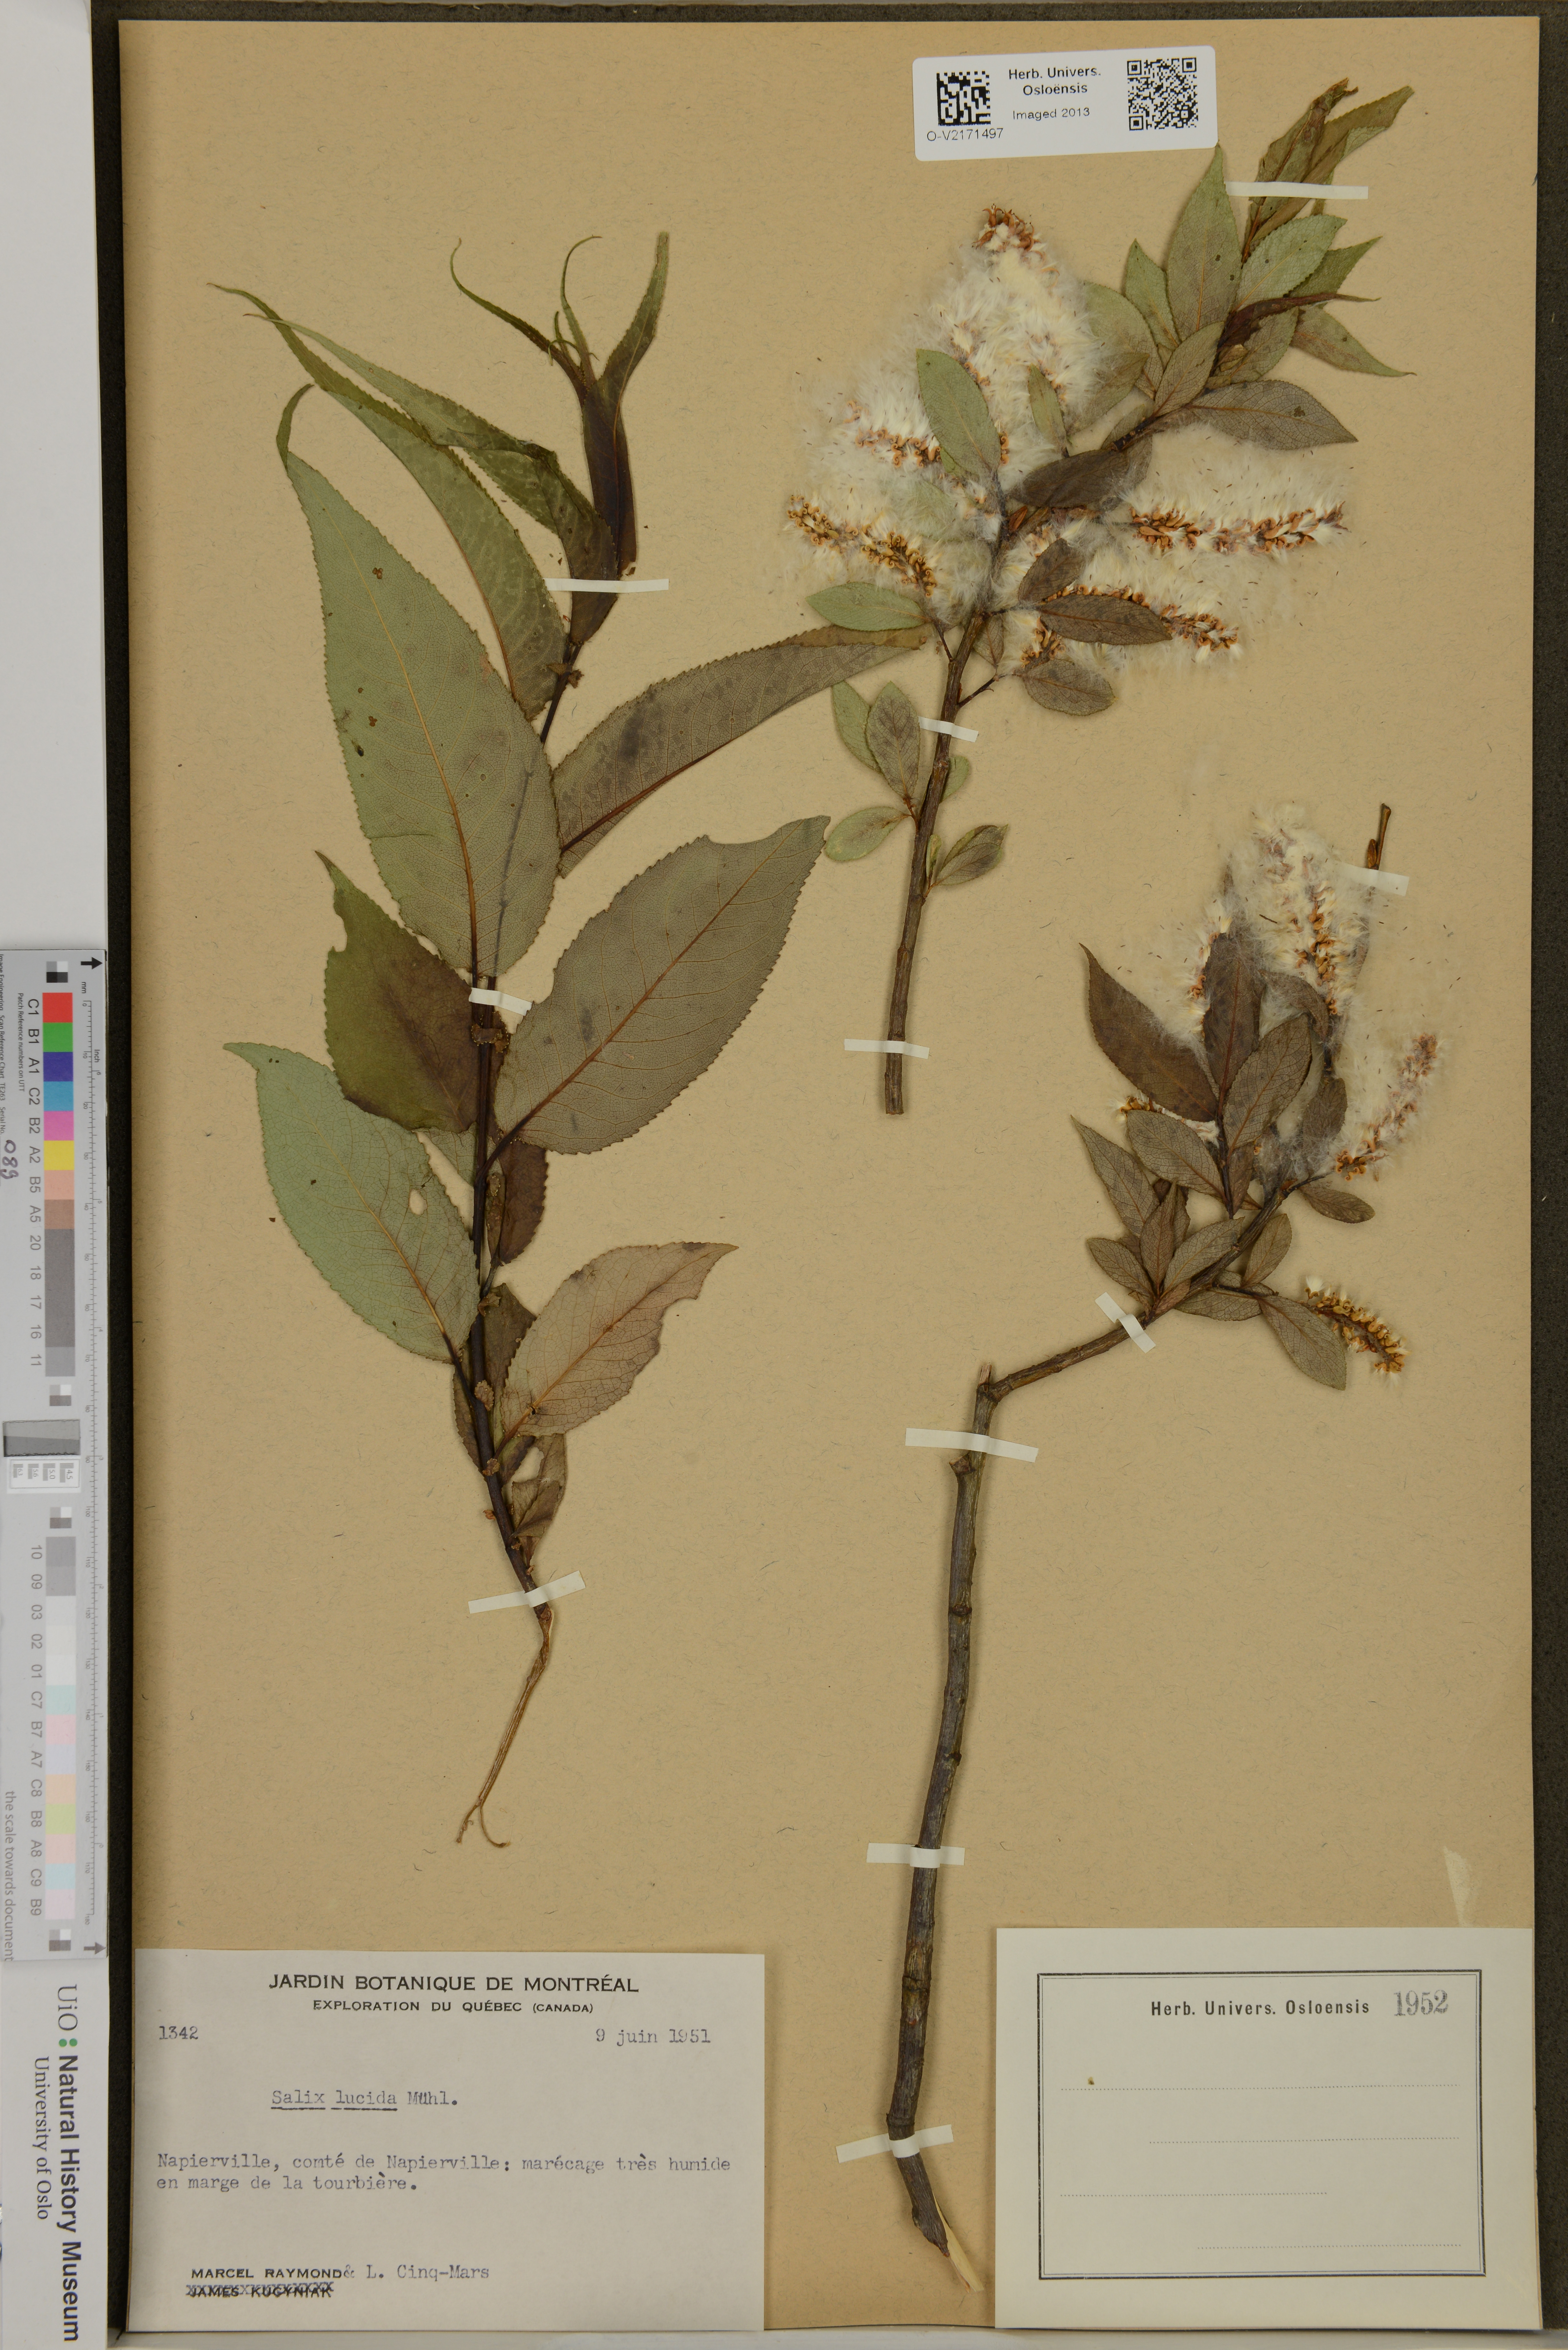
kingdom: Plantae
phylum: Tracheophyta
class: Magnoliopsida
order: Malpighiales
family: Salicaceae
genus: Salix
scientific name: Salix lucida
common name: Shining willow
